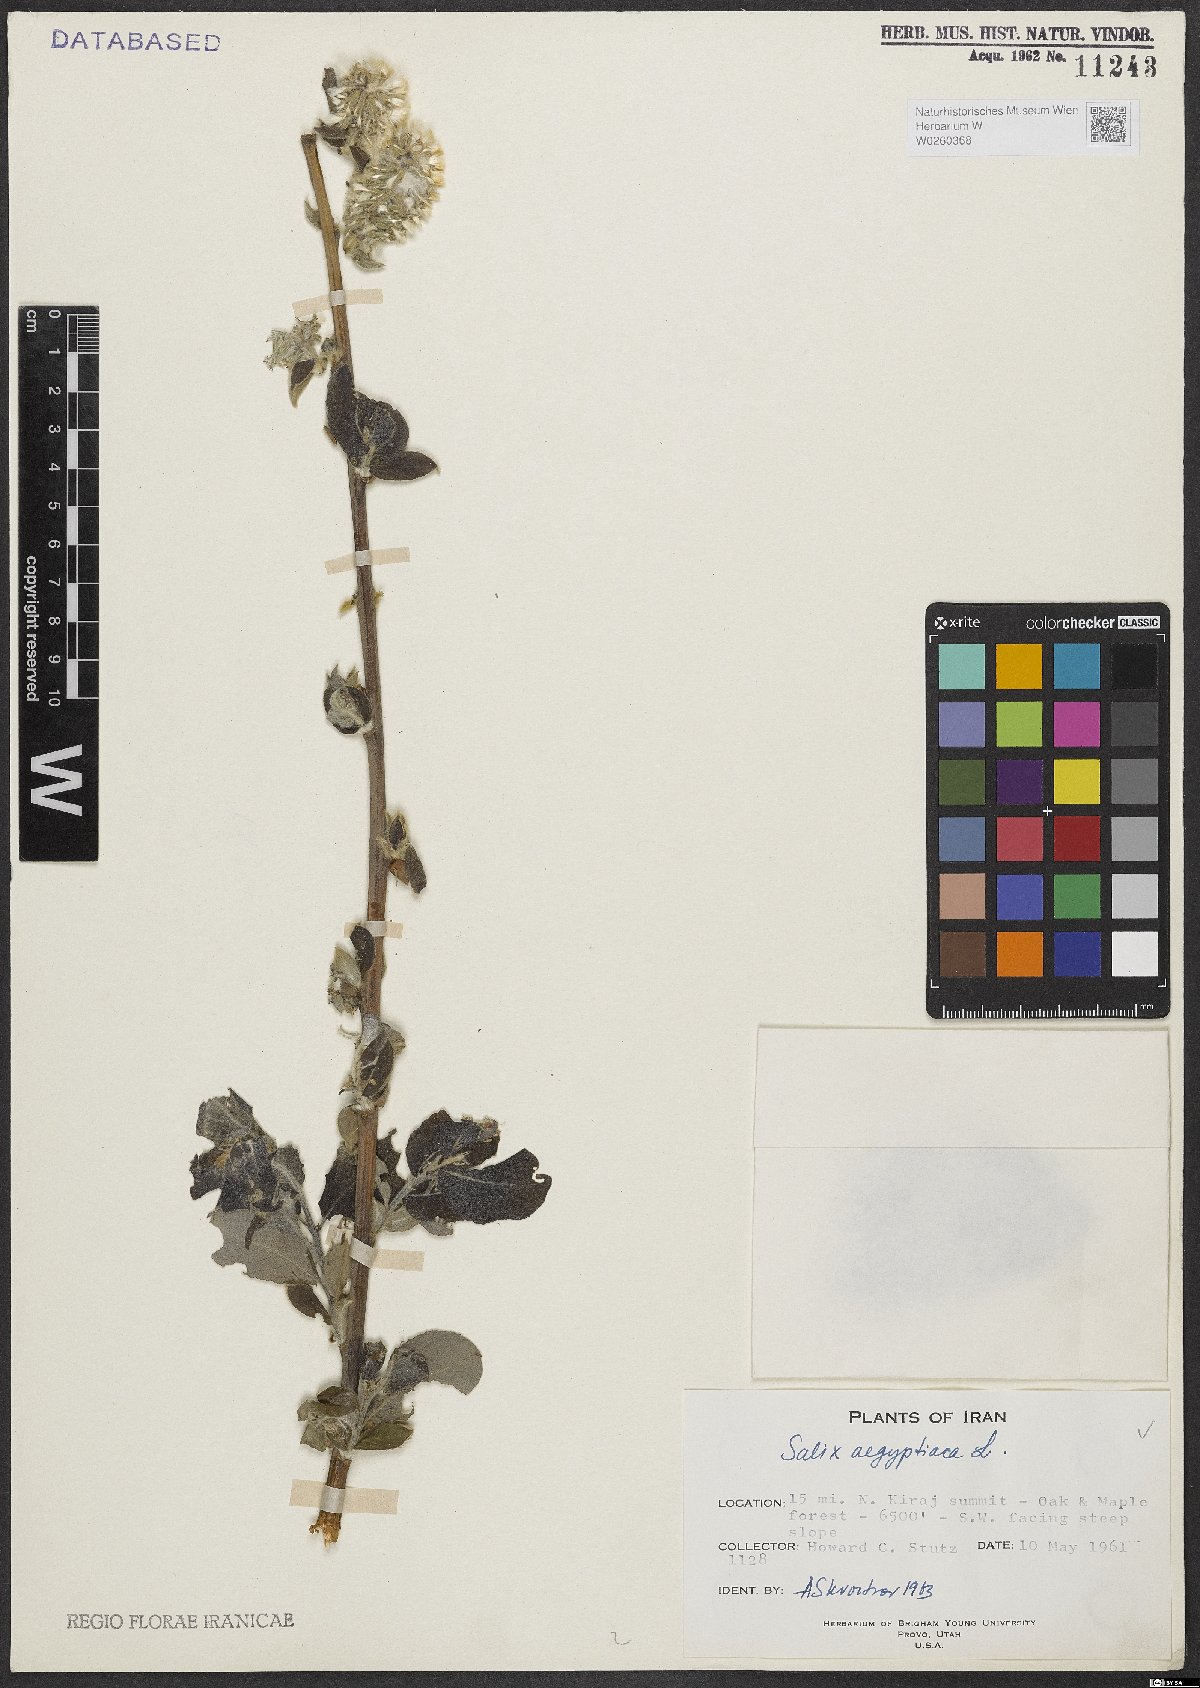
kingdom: Plantae
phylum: Tracheophyta
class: Magnoliopsida
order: Malpighiales
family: Salicaceae
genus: Salix
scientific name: Salix aegyptiaca
